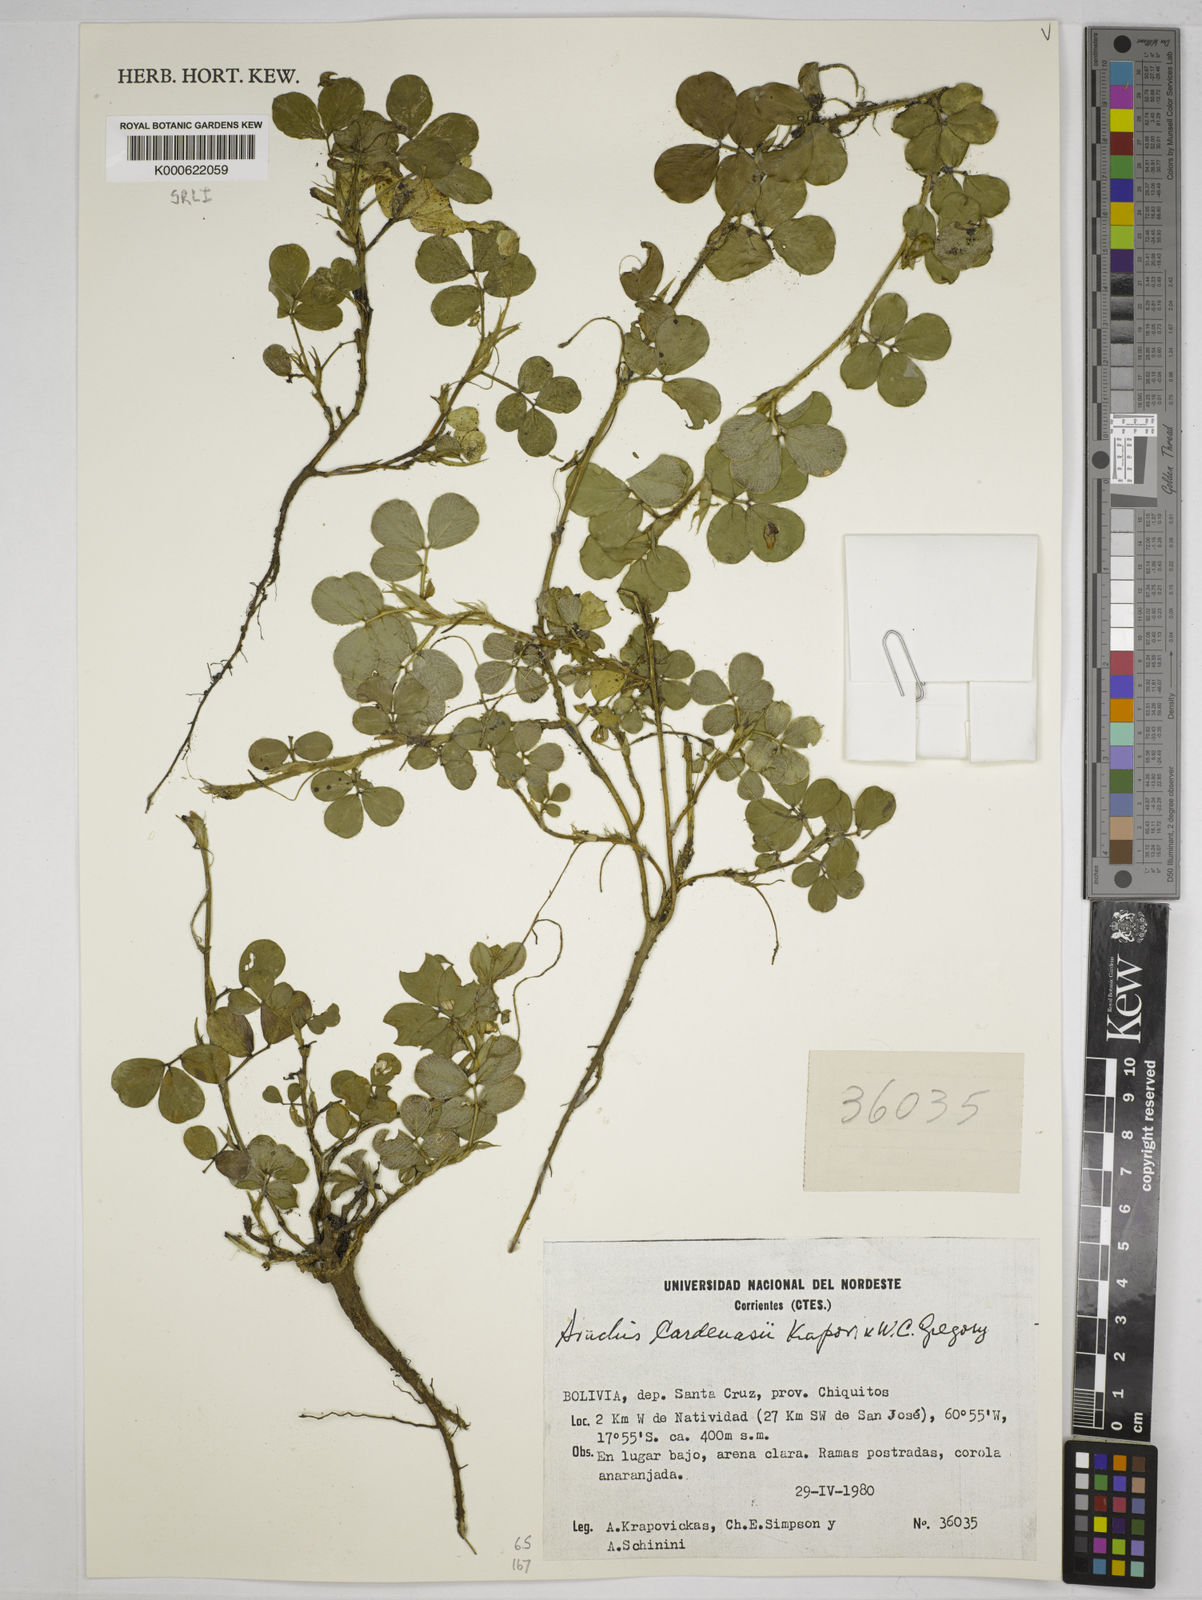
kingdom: Plantae
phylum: Tracheophyta
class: Magnoliopsida
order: Fabales
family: Fabaceae
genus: Arachis
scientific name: Arachis cardenasii
